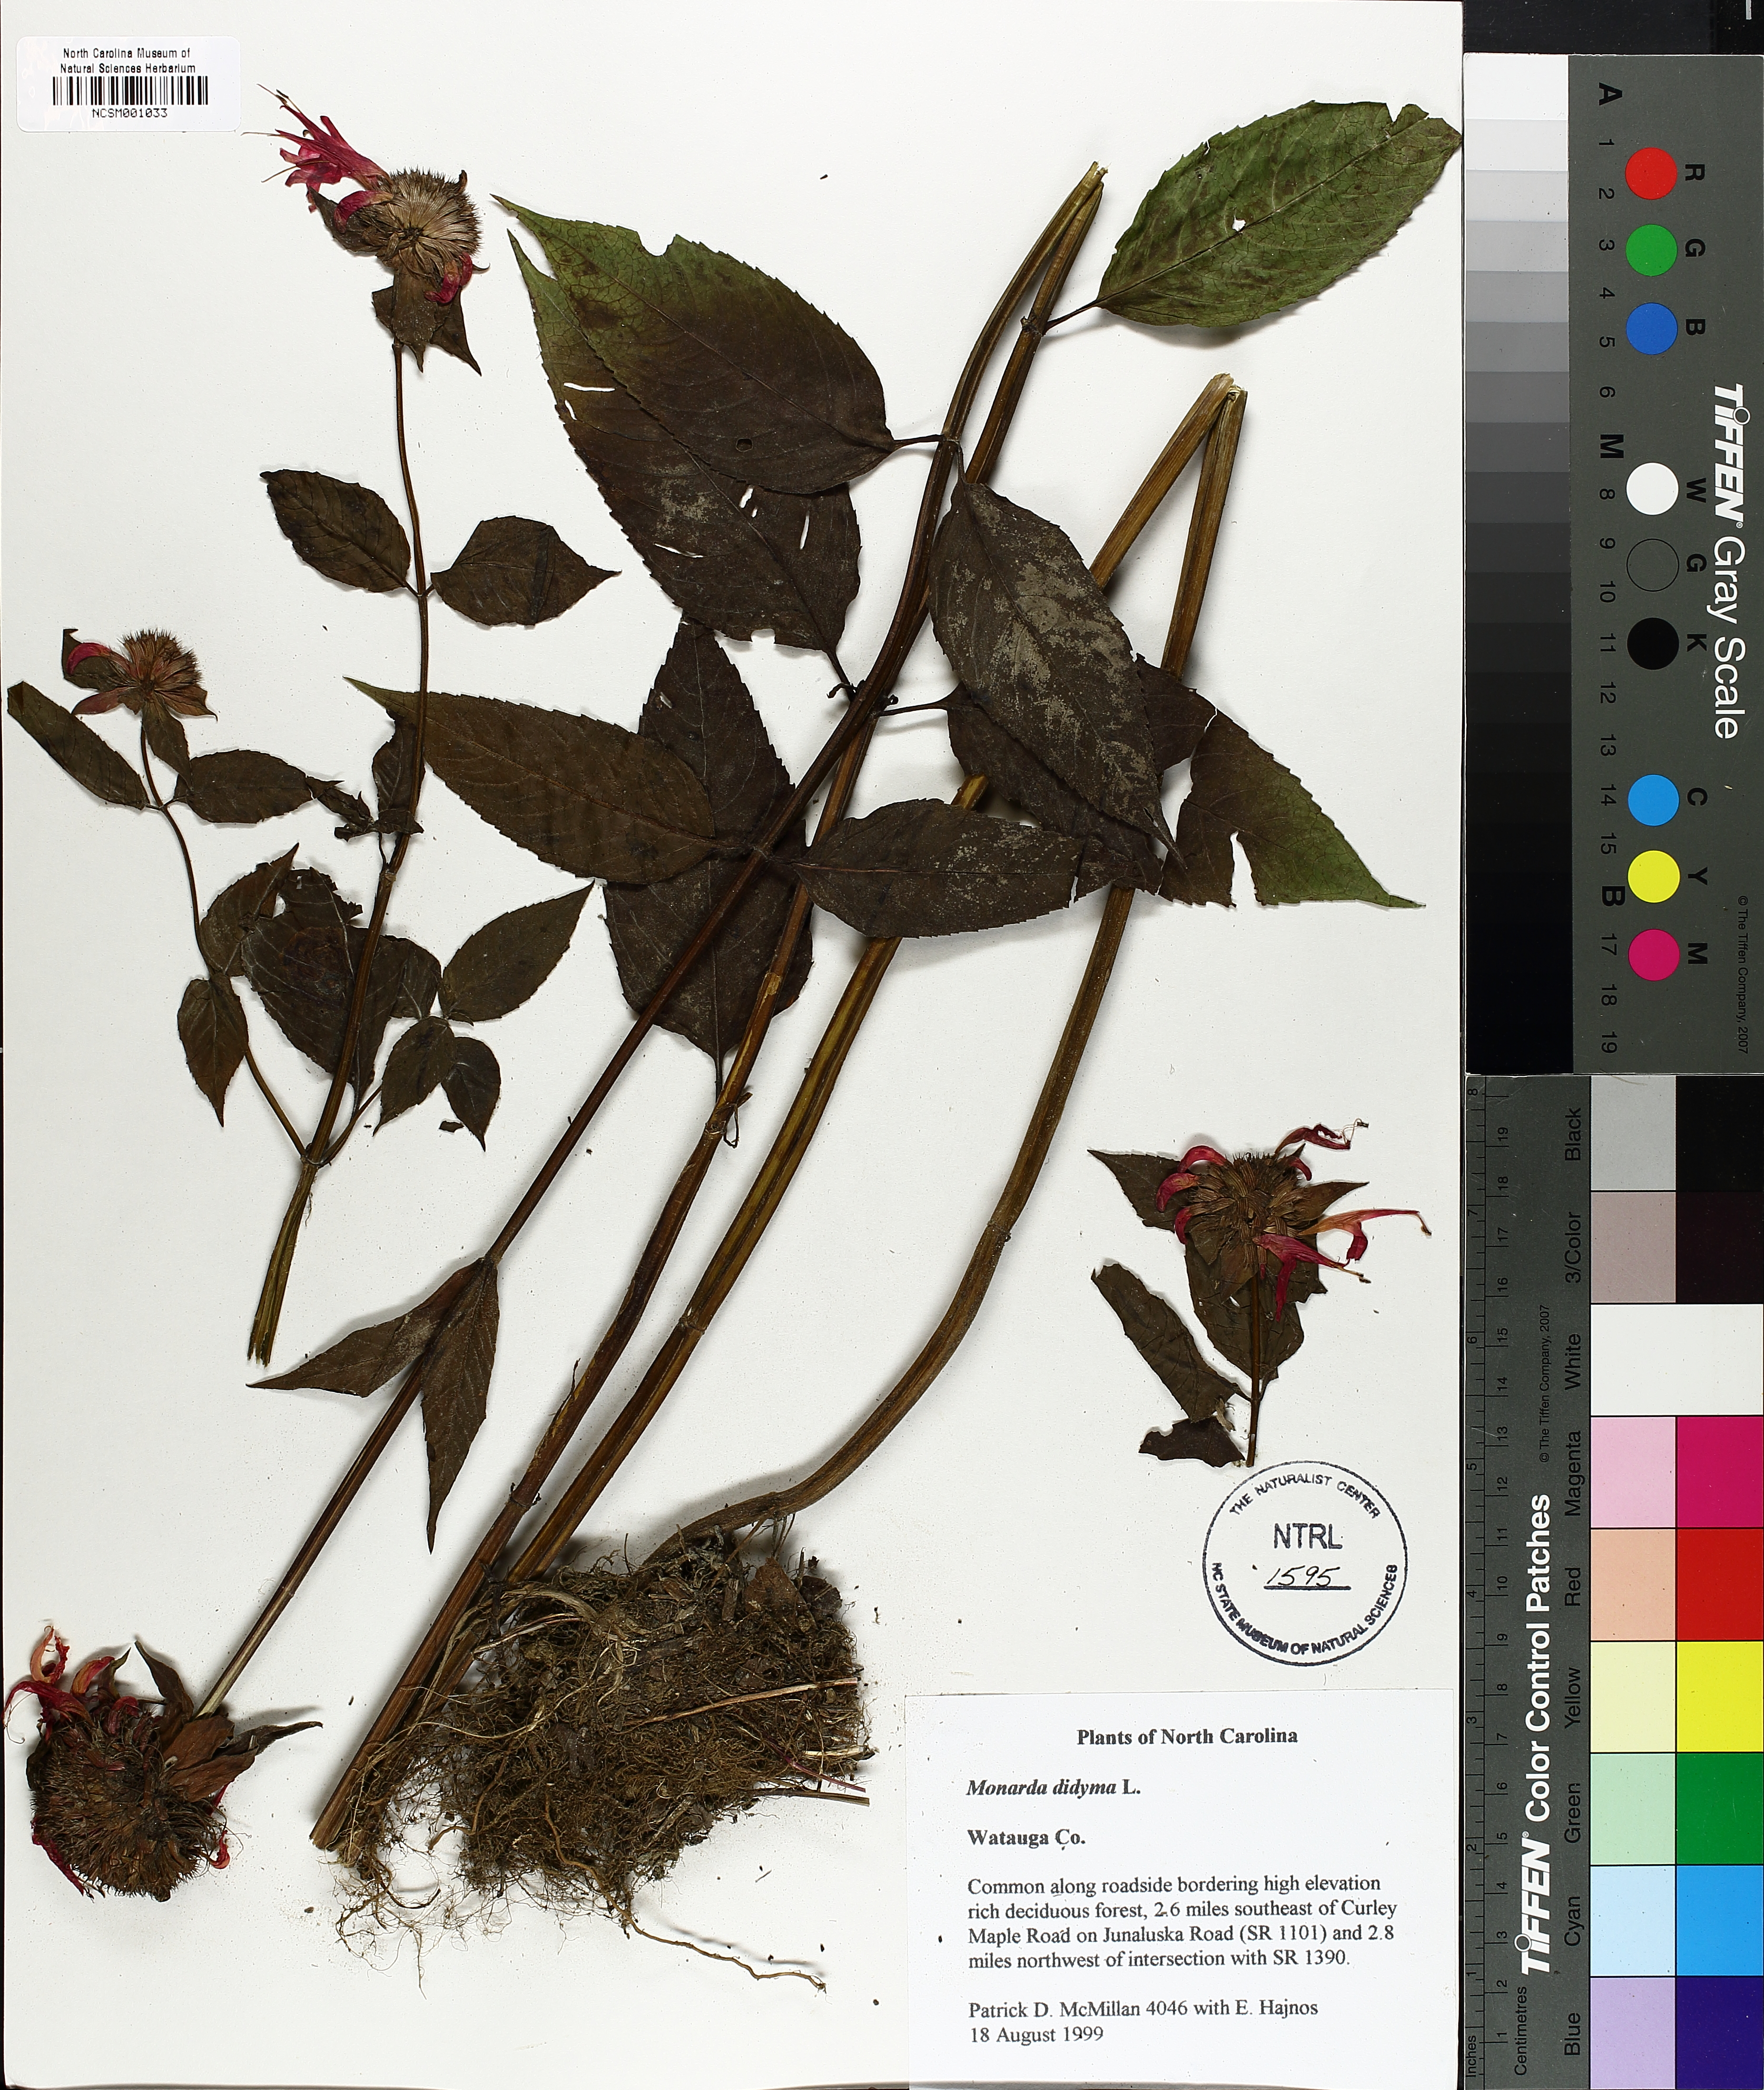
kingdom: Plantae
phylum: Tracheophyta
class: Magnoliopsida
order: Lamiales
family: Lamiaceae
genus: Monarda
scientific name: Monarda didyma
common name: Beebalm
